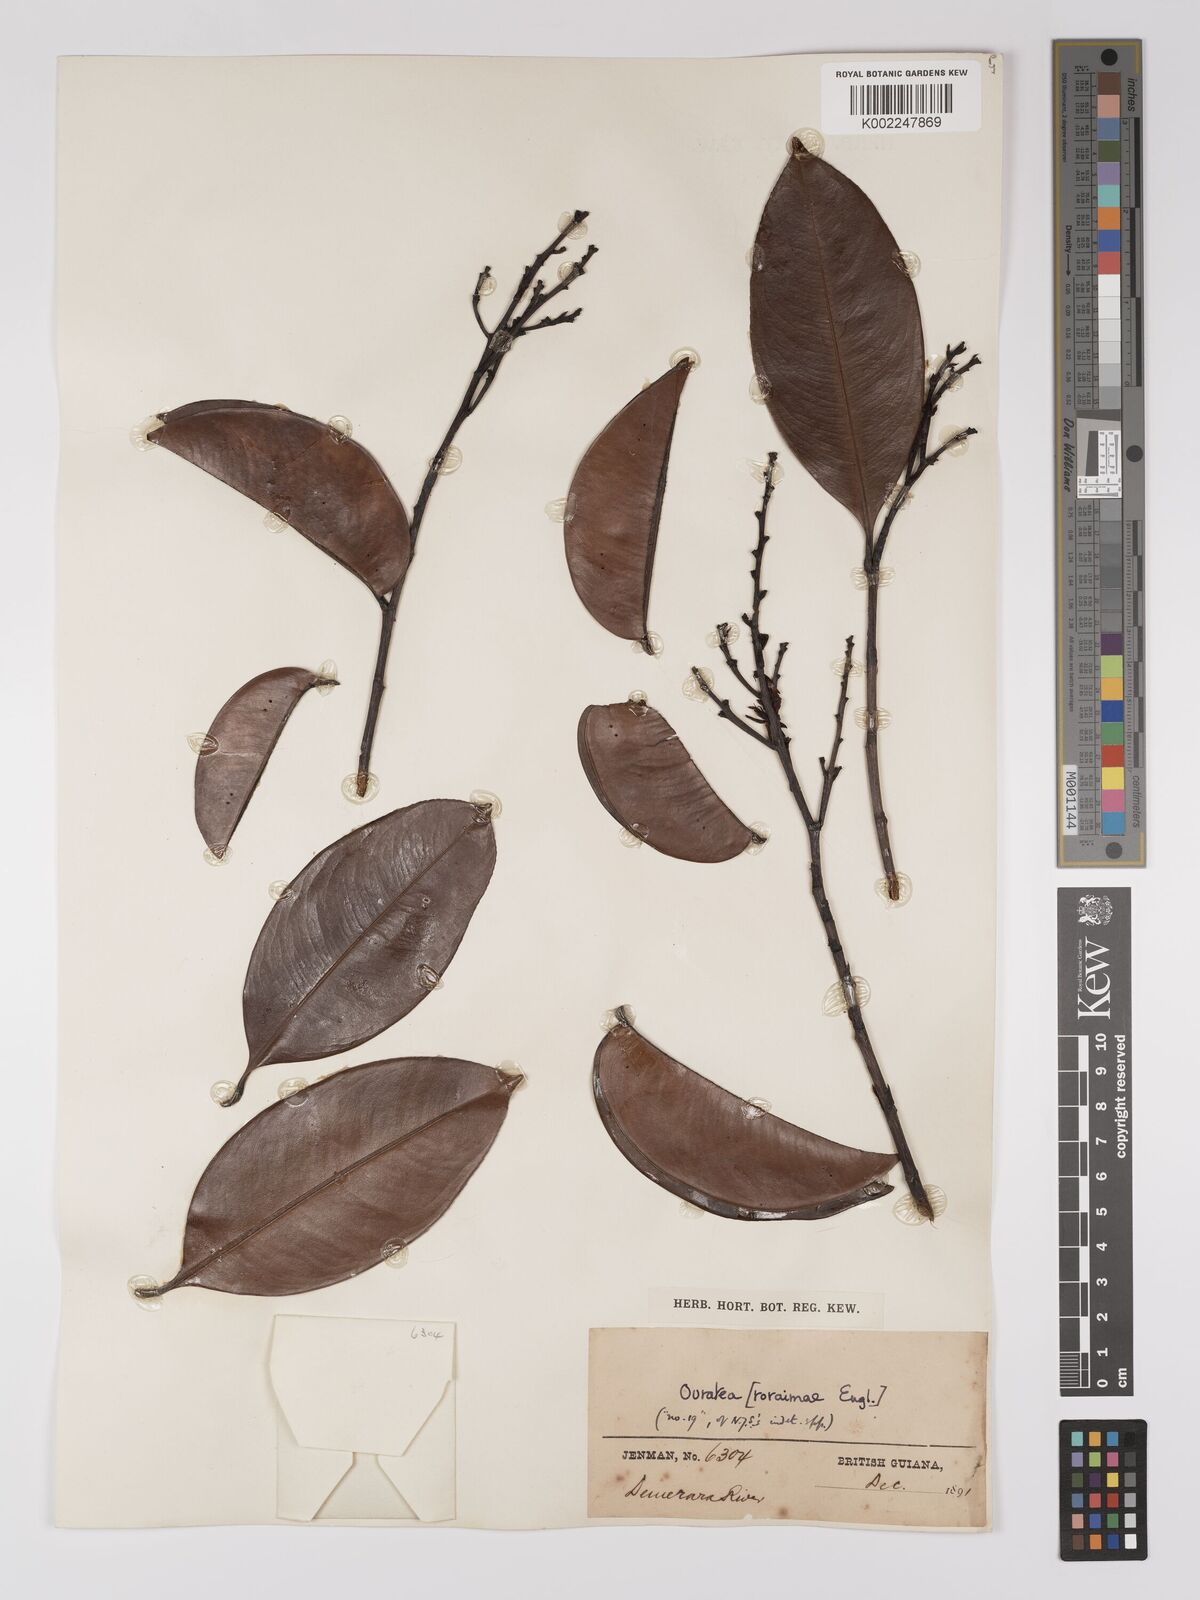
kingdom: Plantae
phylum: Tracheophyta
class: Magnoliopsida
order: Malpighiales
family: Ochnaceae
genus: Ouratea
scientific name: Ouratea
